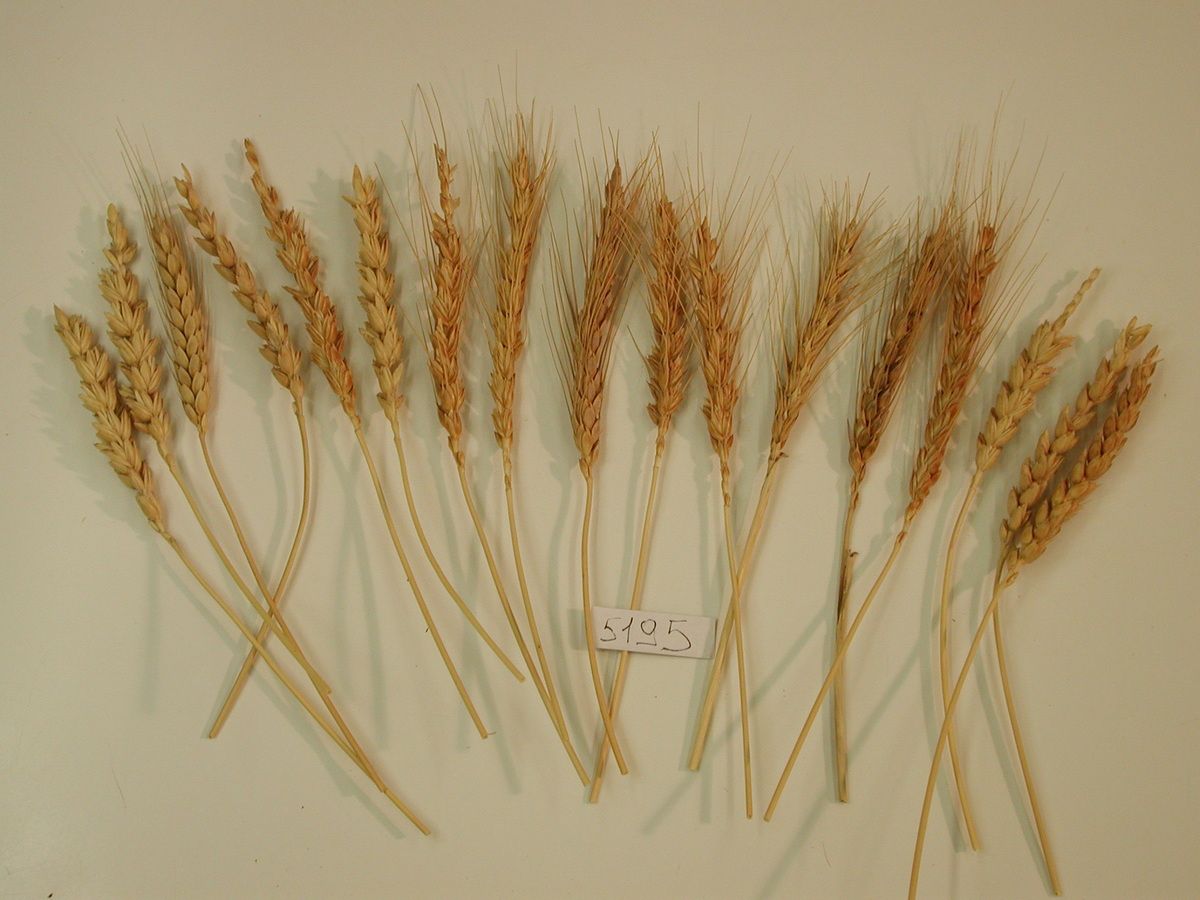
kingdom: Plantae
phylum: Tracheophyta
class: Liliopsida
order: Poales
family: Poaceae
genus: Triticum
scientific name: Triticum aestivum
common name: Wheat
